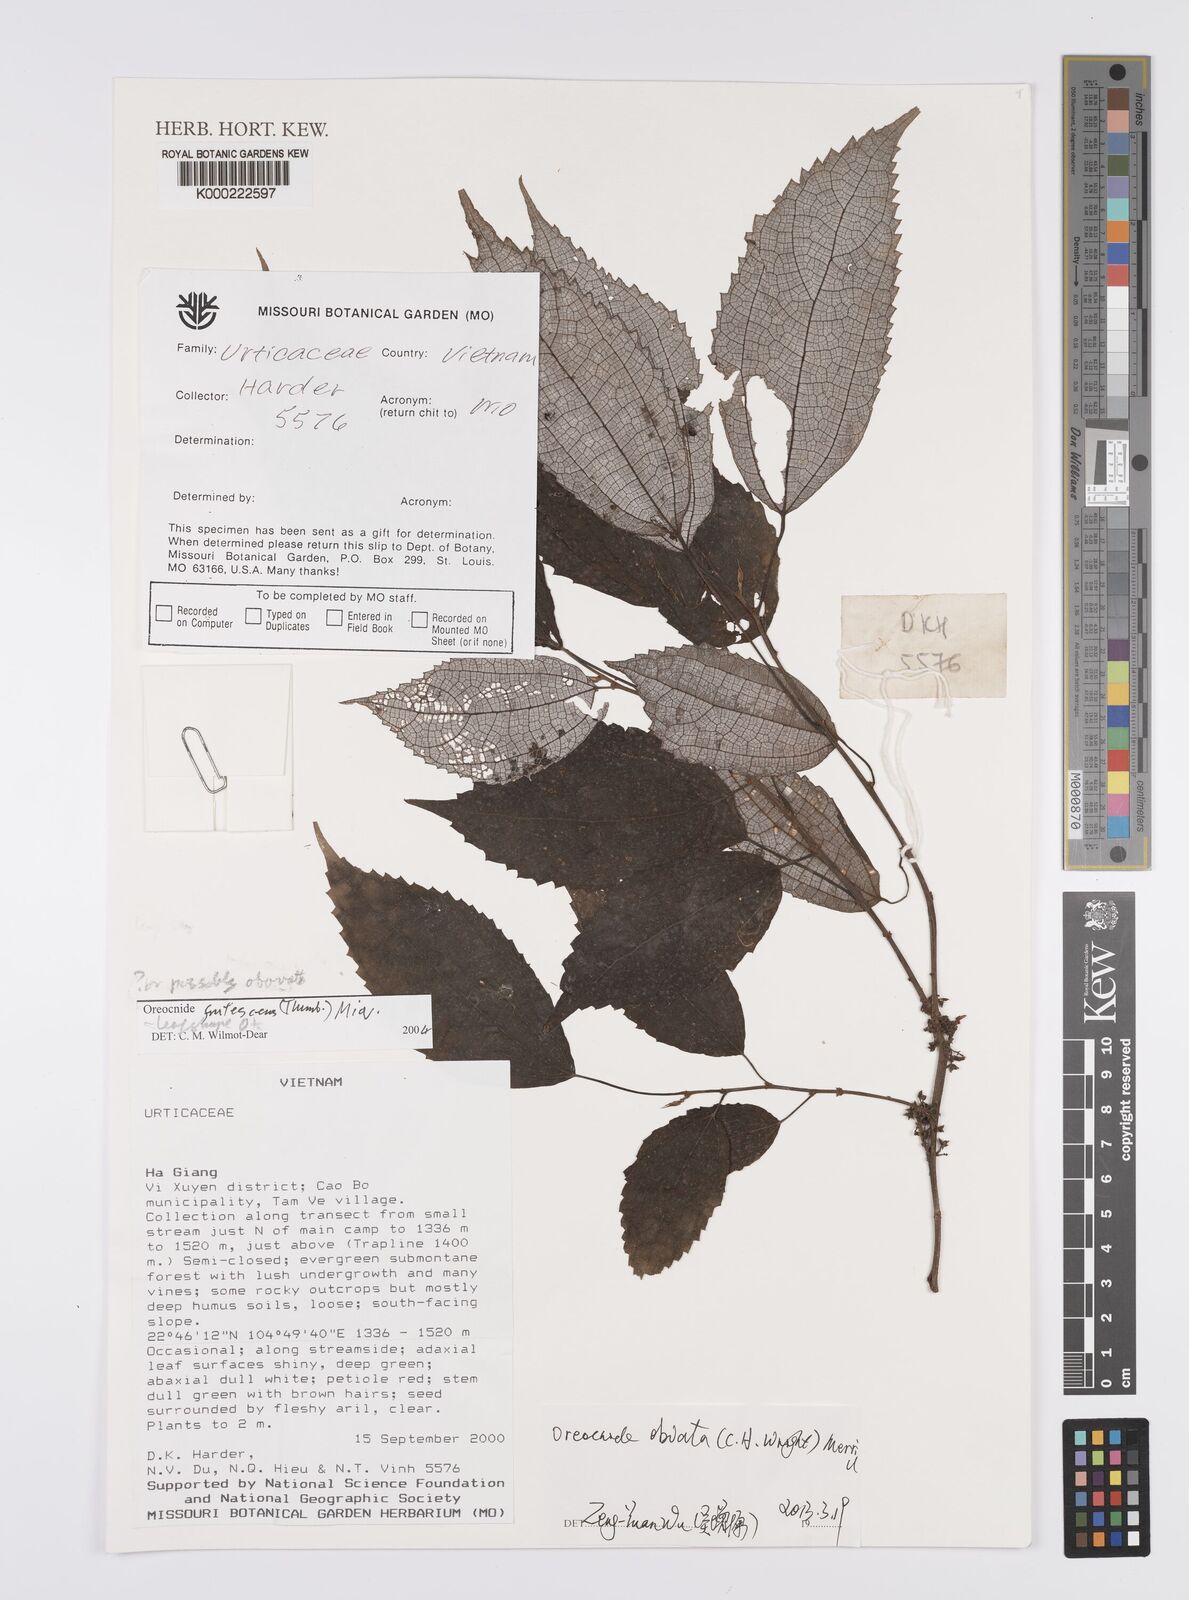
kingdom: Plantae
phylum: Tracheophyta
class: Magnoliopsida
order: Rosales
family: Urticaceae
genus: Oreocnide
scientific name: Oreocnide frutescens
